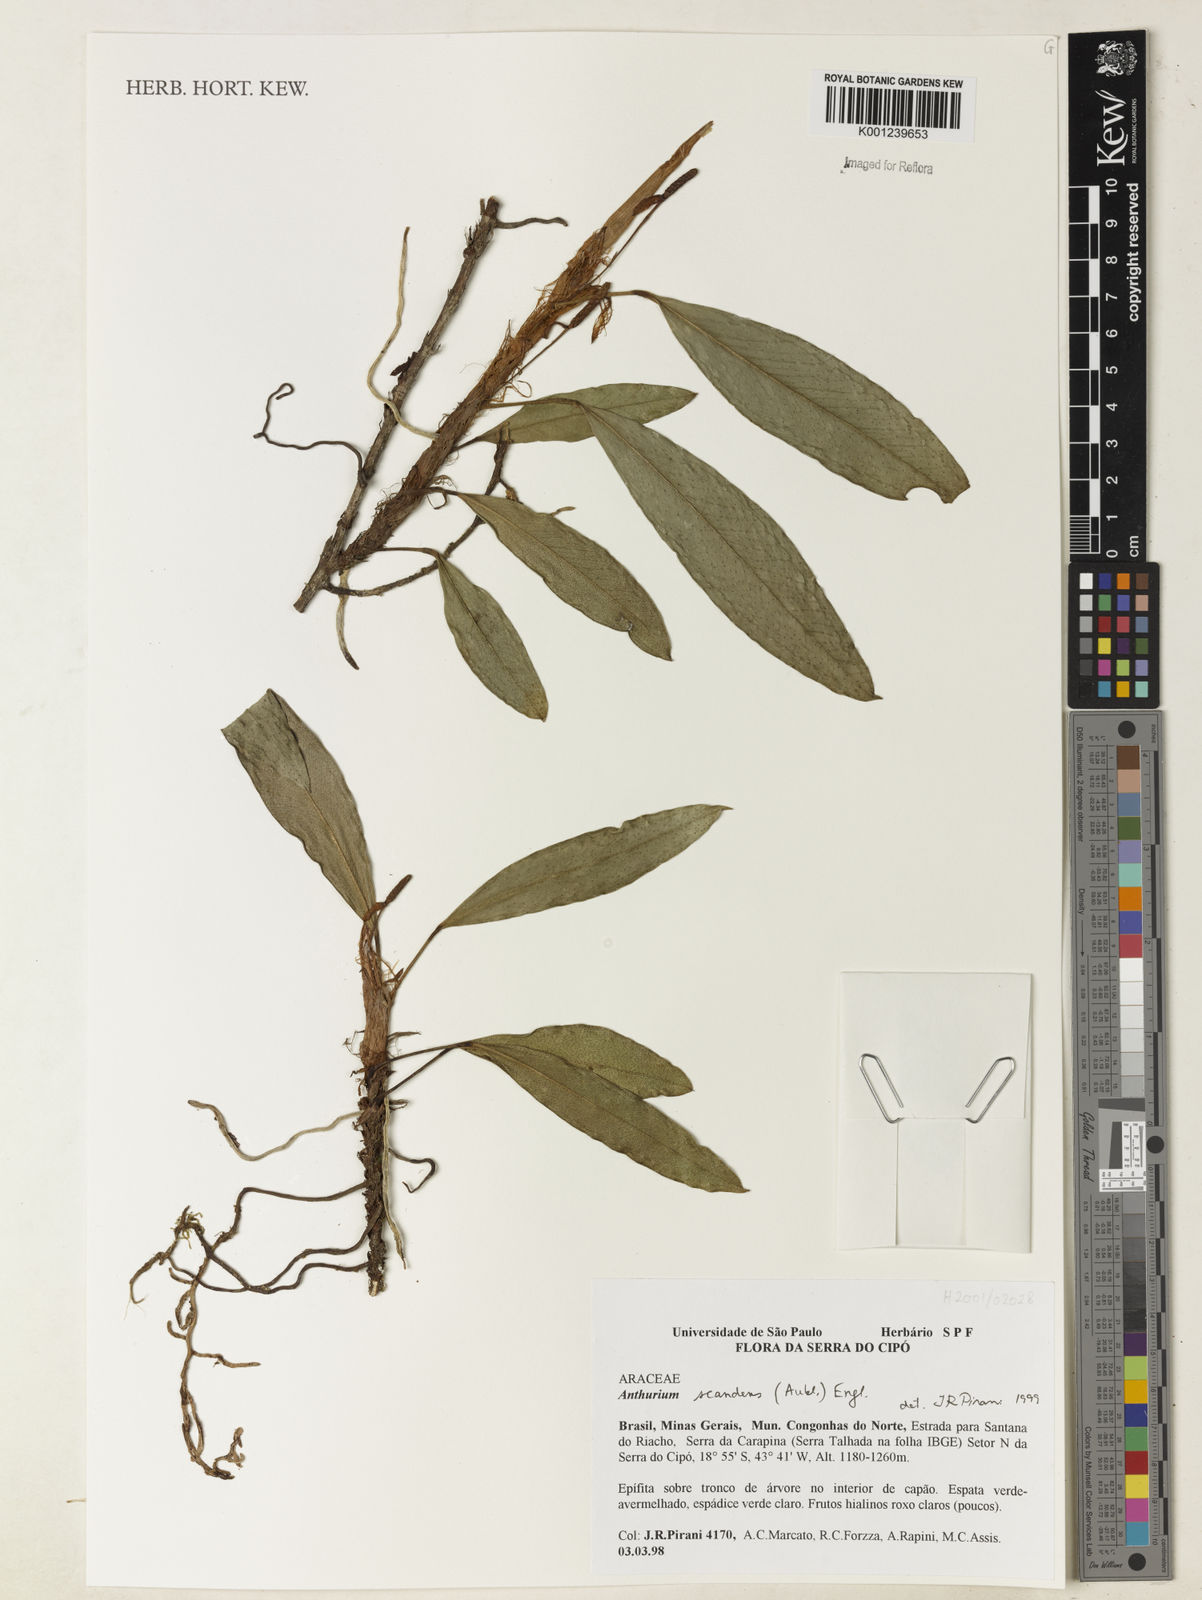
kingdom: Plantae
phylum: Tracheophyta
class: Liliopsida
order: Alismatales
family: Araceae
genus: Anthurium
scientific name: Anthurium scandens
